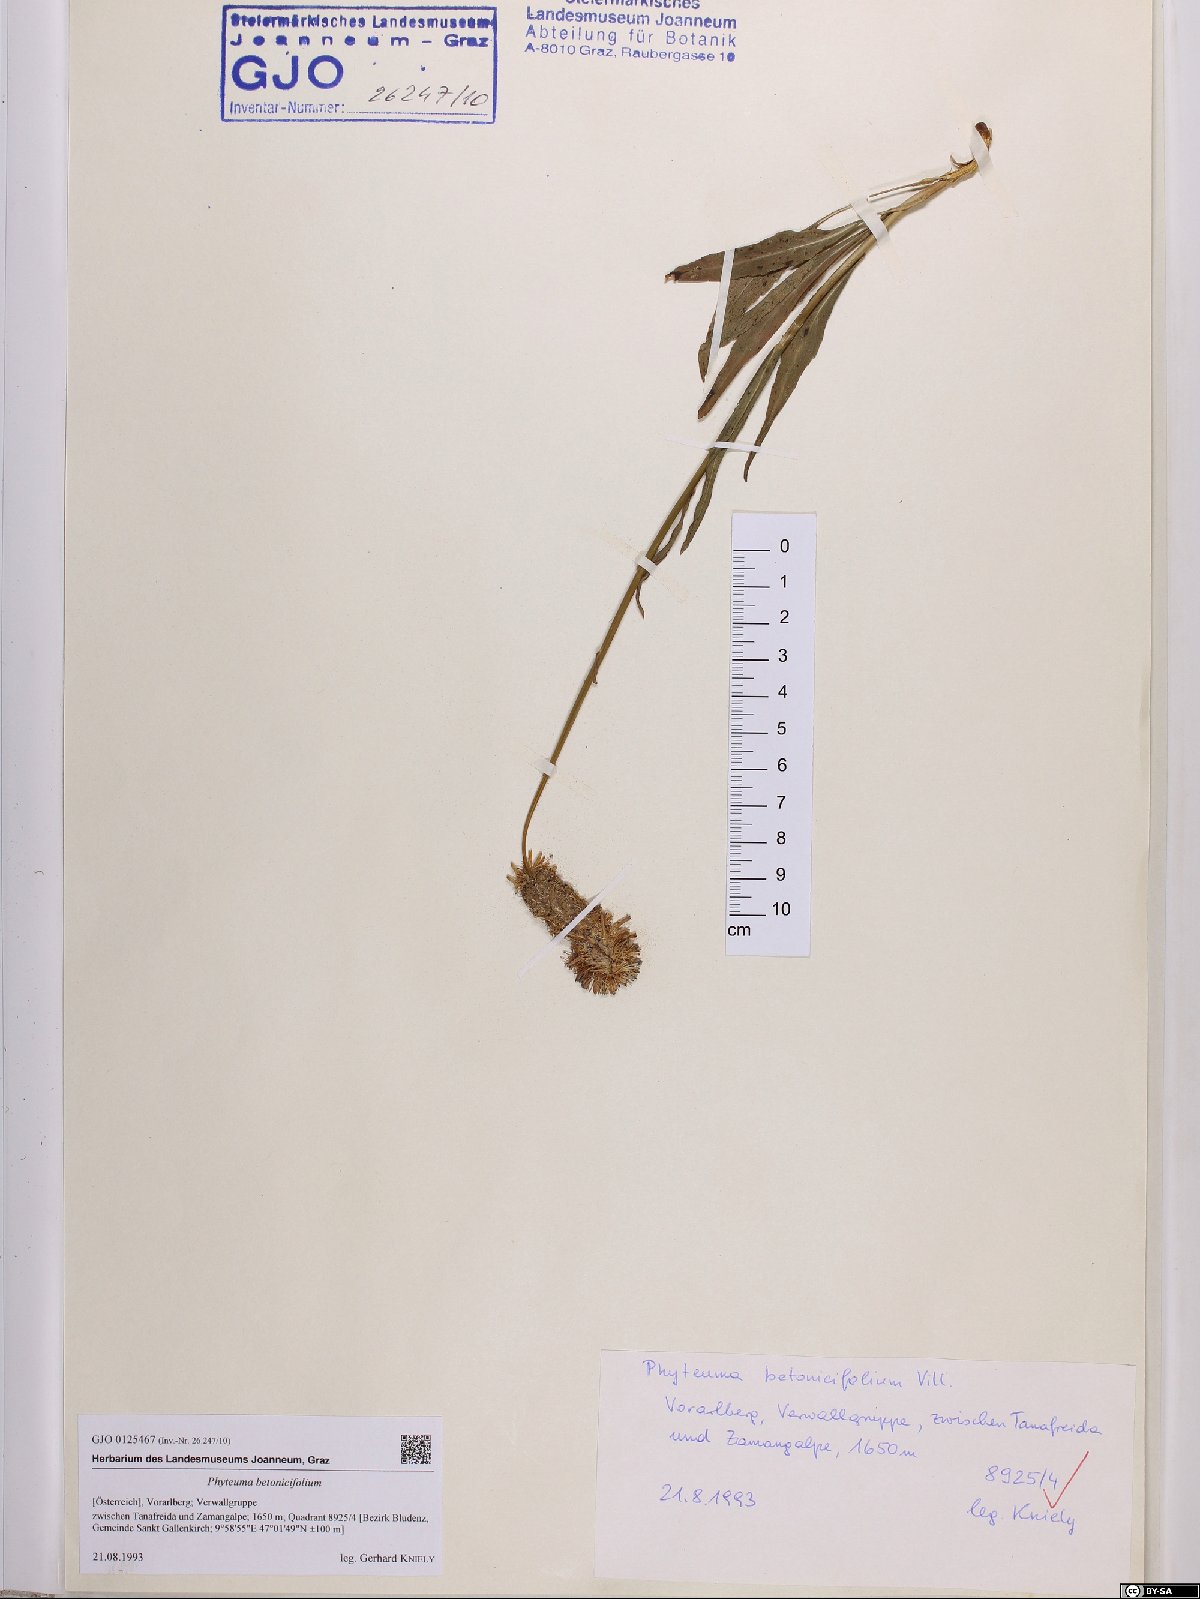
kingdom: Plantae
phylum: Tracheophyta
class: Magnoliopsida
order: Asterales
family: Campanulaceae
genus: Phyteuma
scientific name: Phyteuma betonicifolium
